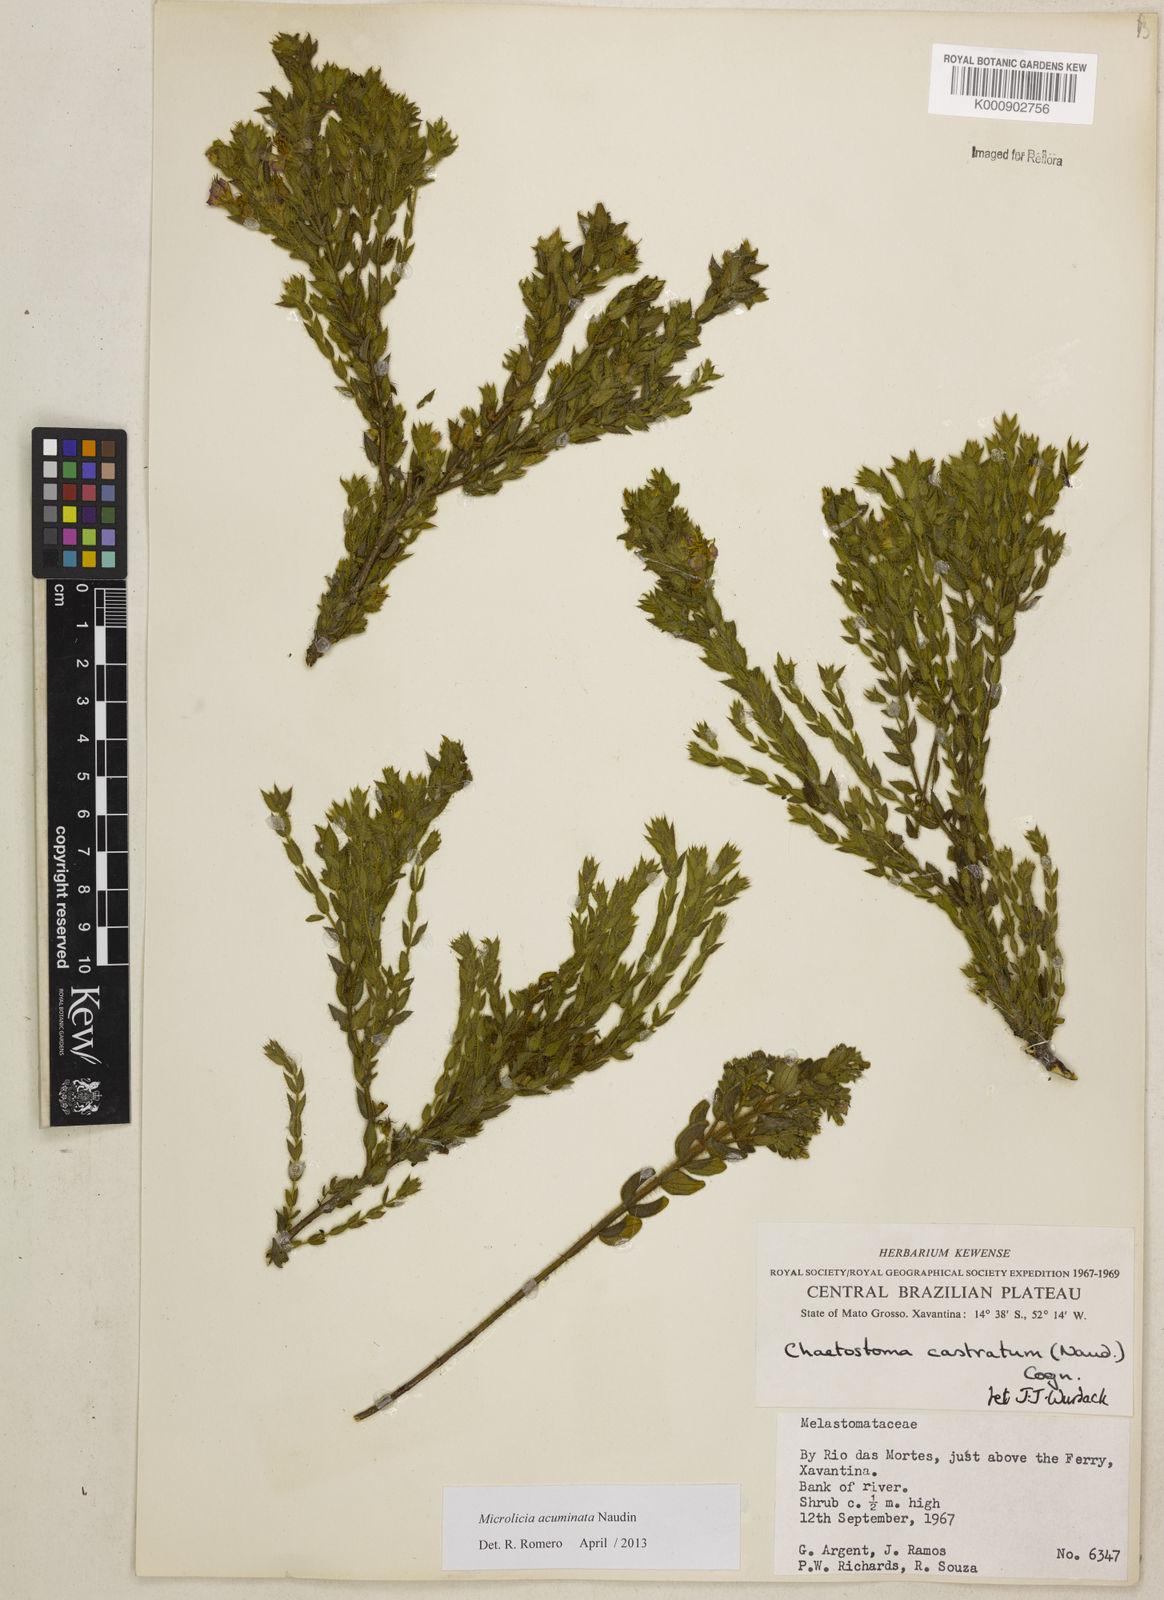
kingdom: Plantae
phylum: Tracheophyta
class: Magnoliopsida
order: Myrtales
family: Melastomataceae
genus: Microlicia
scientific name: Microlicia
